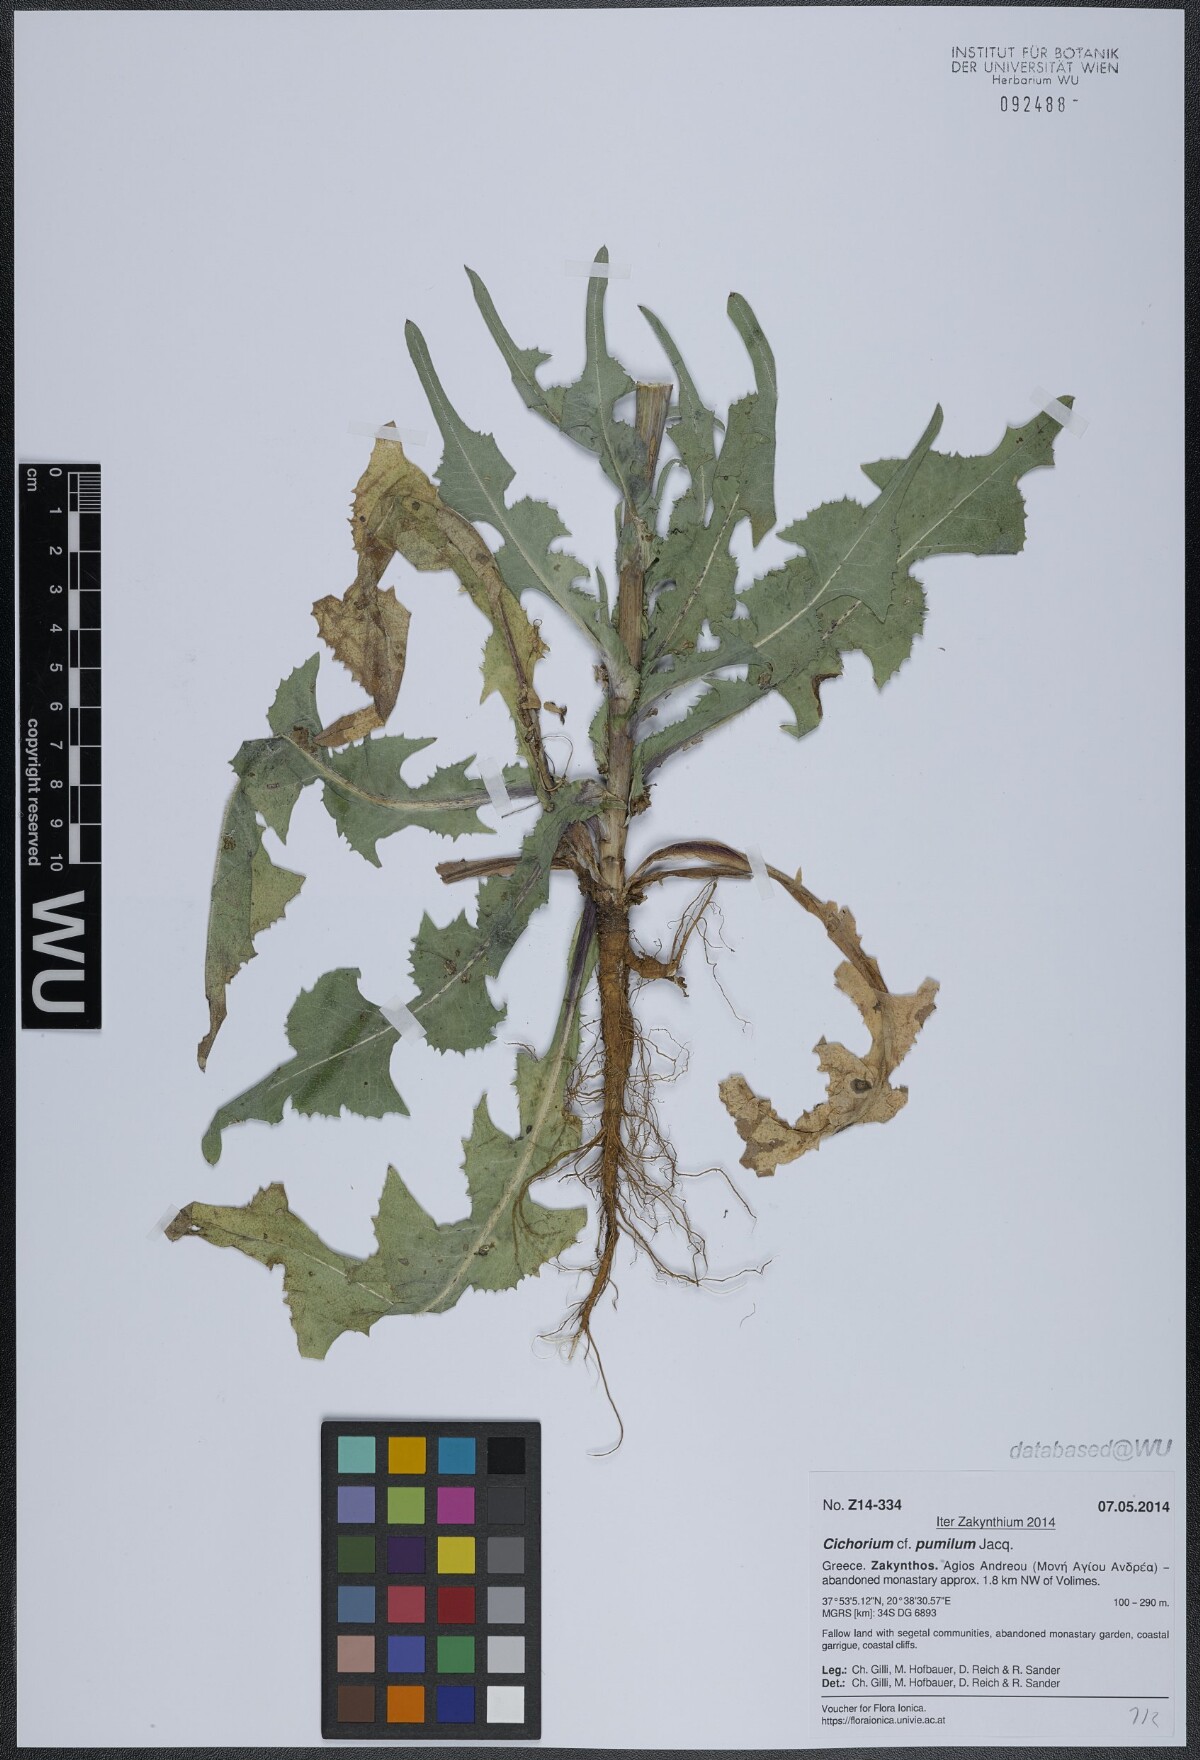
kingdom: Plantae
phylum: Tracheophyta
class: Magnoliopsida
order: Asterales
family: Asteraceae
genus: Cichorium
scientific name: Cichorium pumilum
